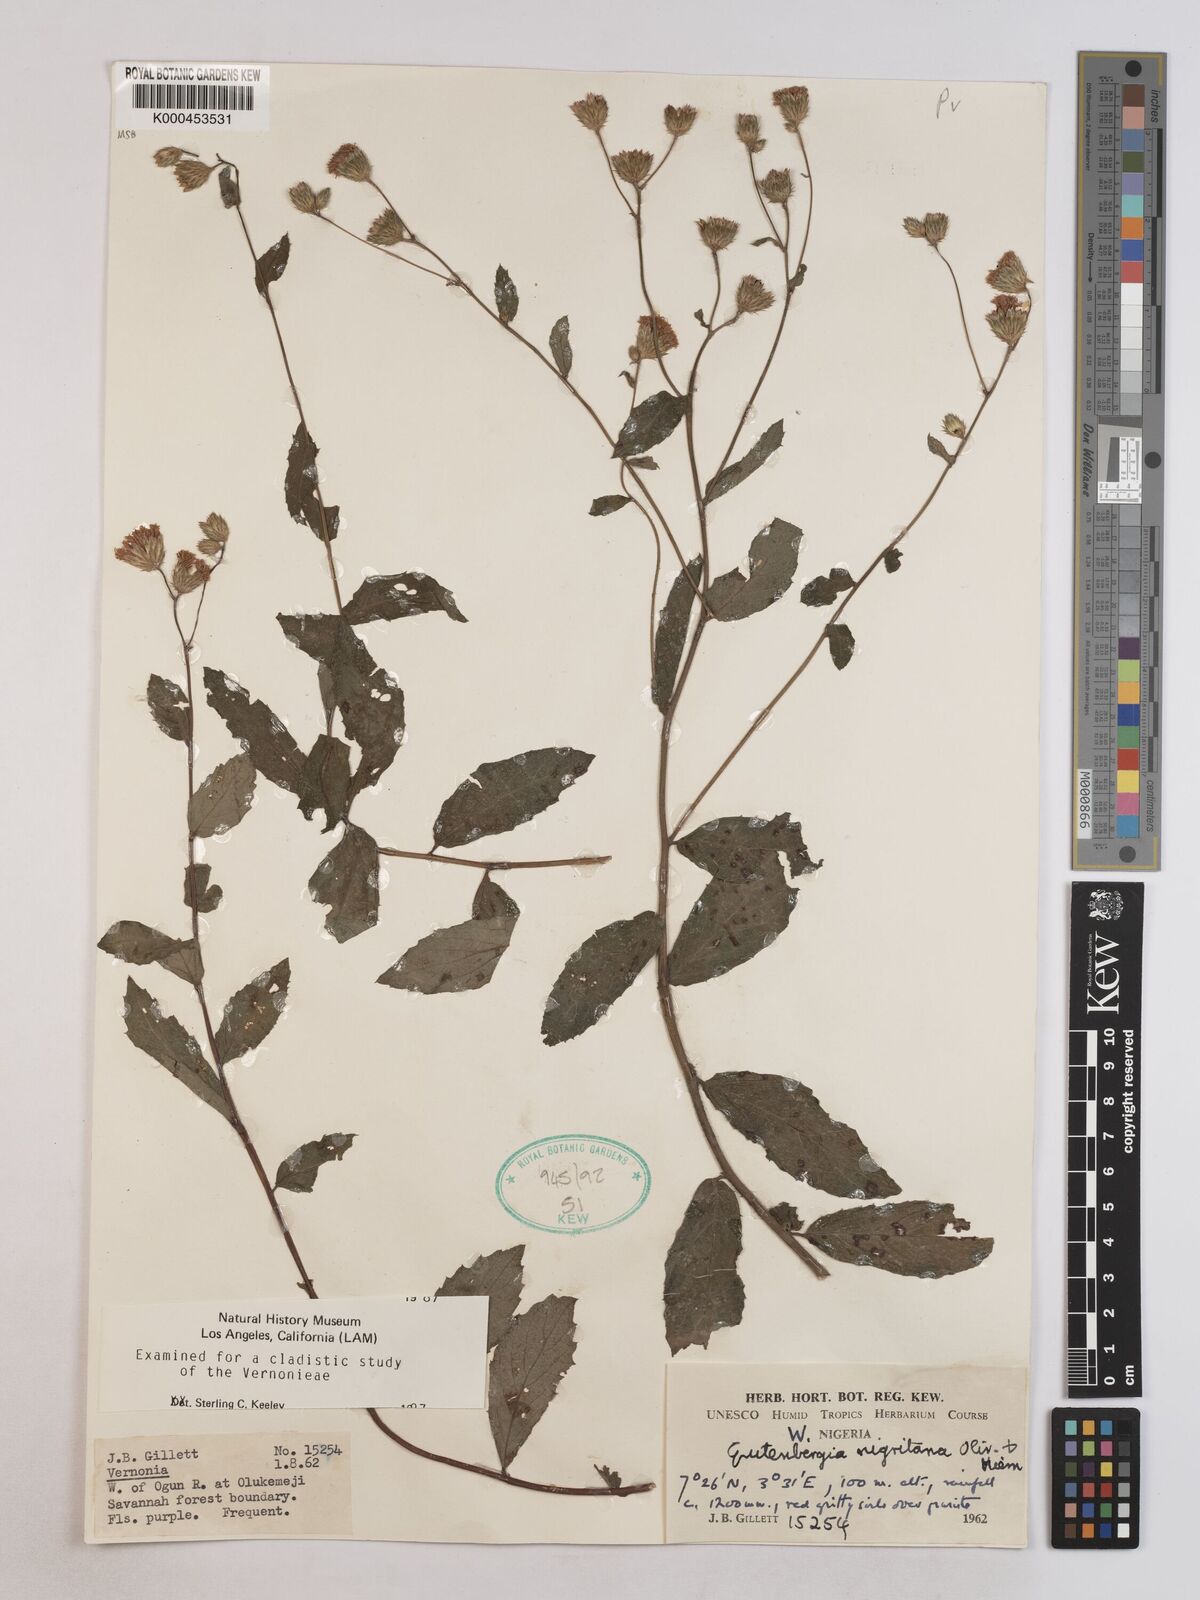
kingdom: Plantae
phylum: Tracheophyta
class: Magnoliopsida
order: Asterales
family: Asteraceae
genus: Kinghamia
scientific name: Kinghamia nigritana
